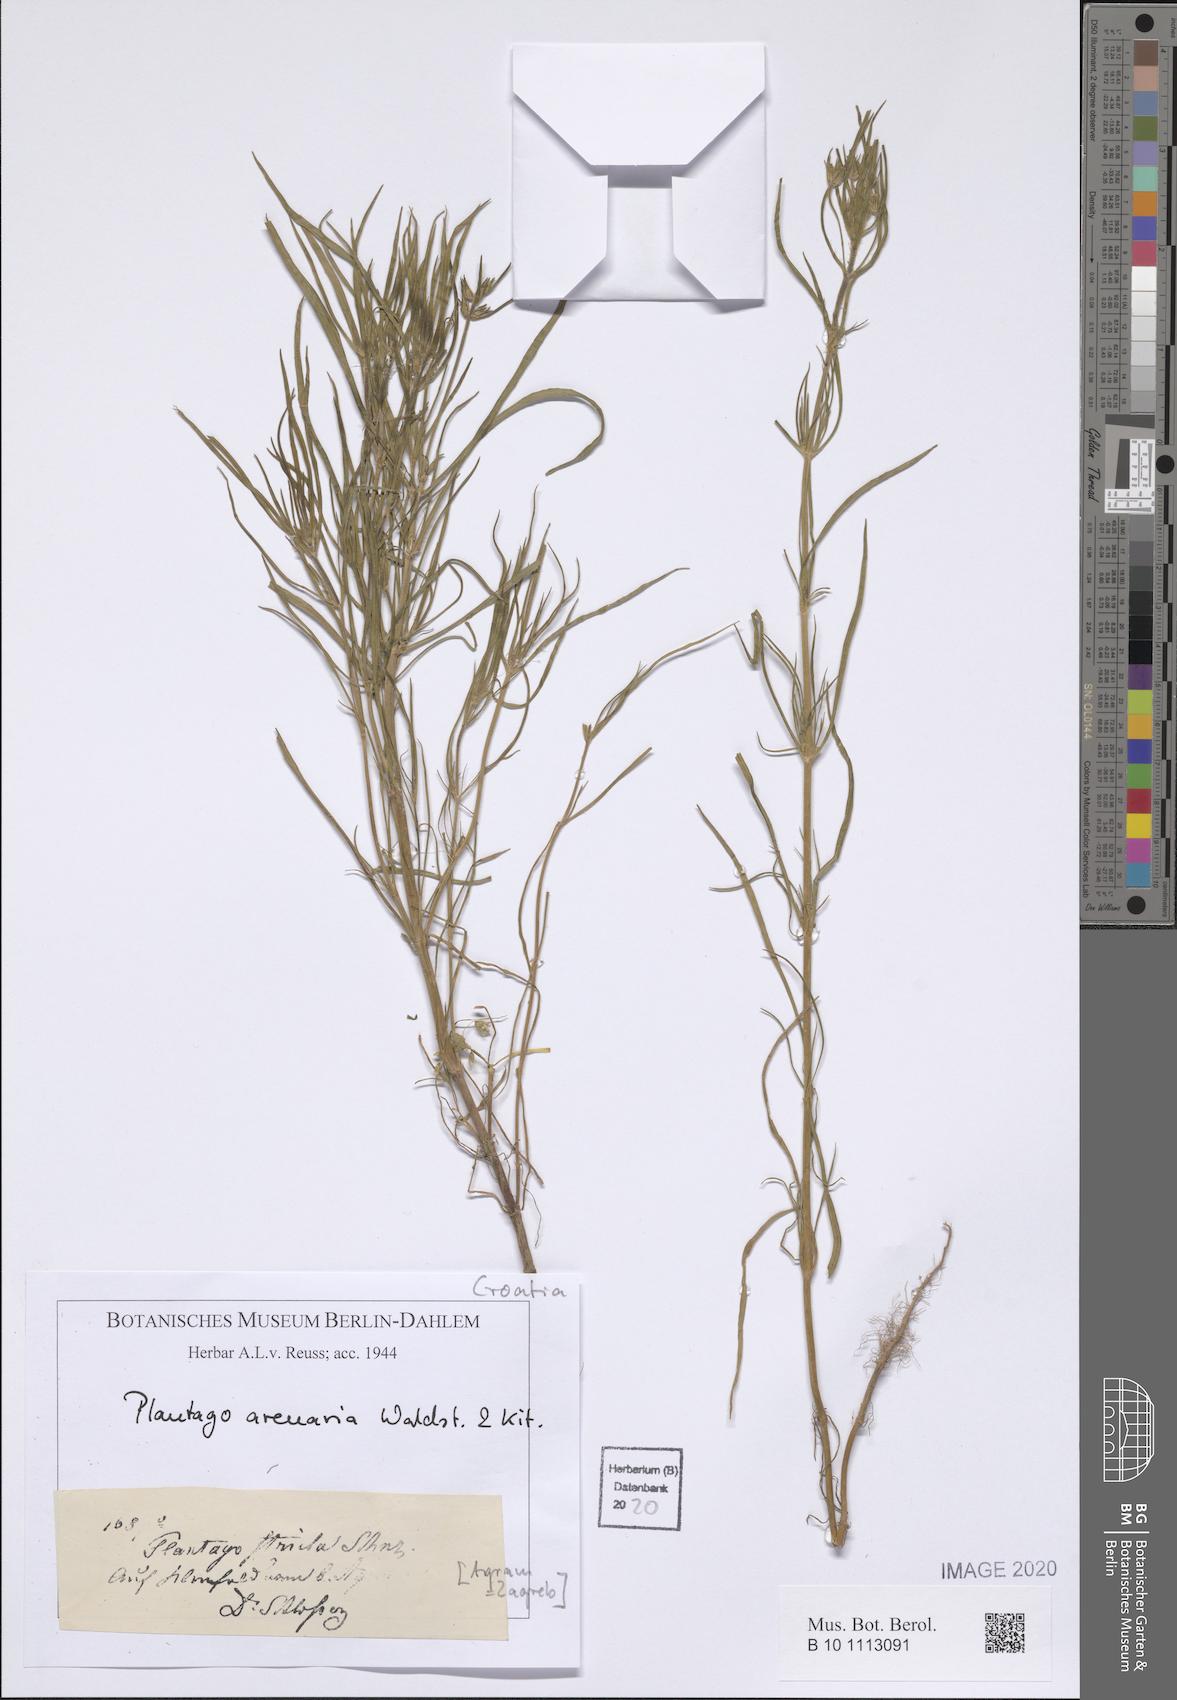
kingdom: Plantae
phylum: Tracheophyta
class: Magnoliopsida
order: Lamiales
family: Plantaginaceae
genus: Plantago
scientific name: Plantago arenaria
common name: Branched plantain
